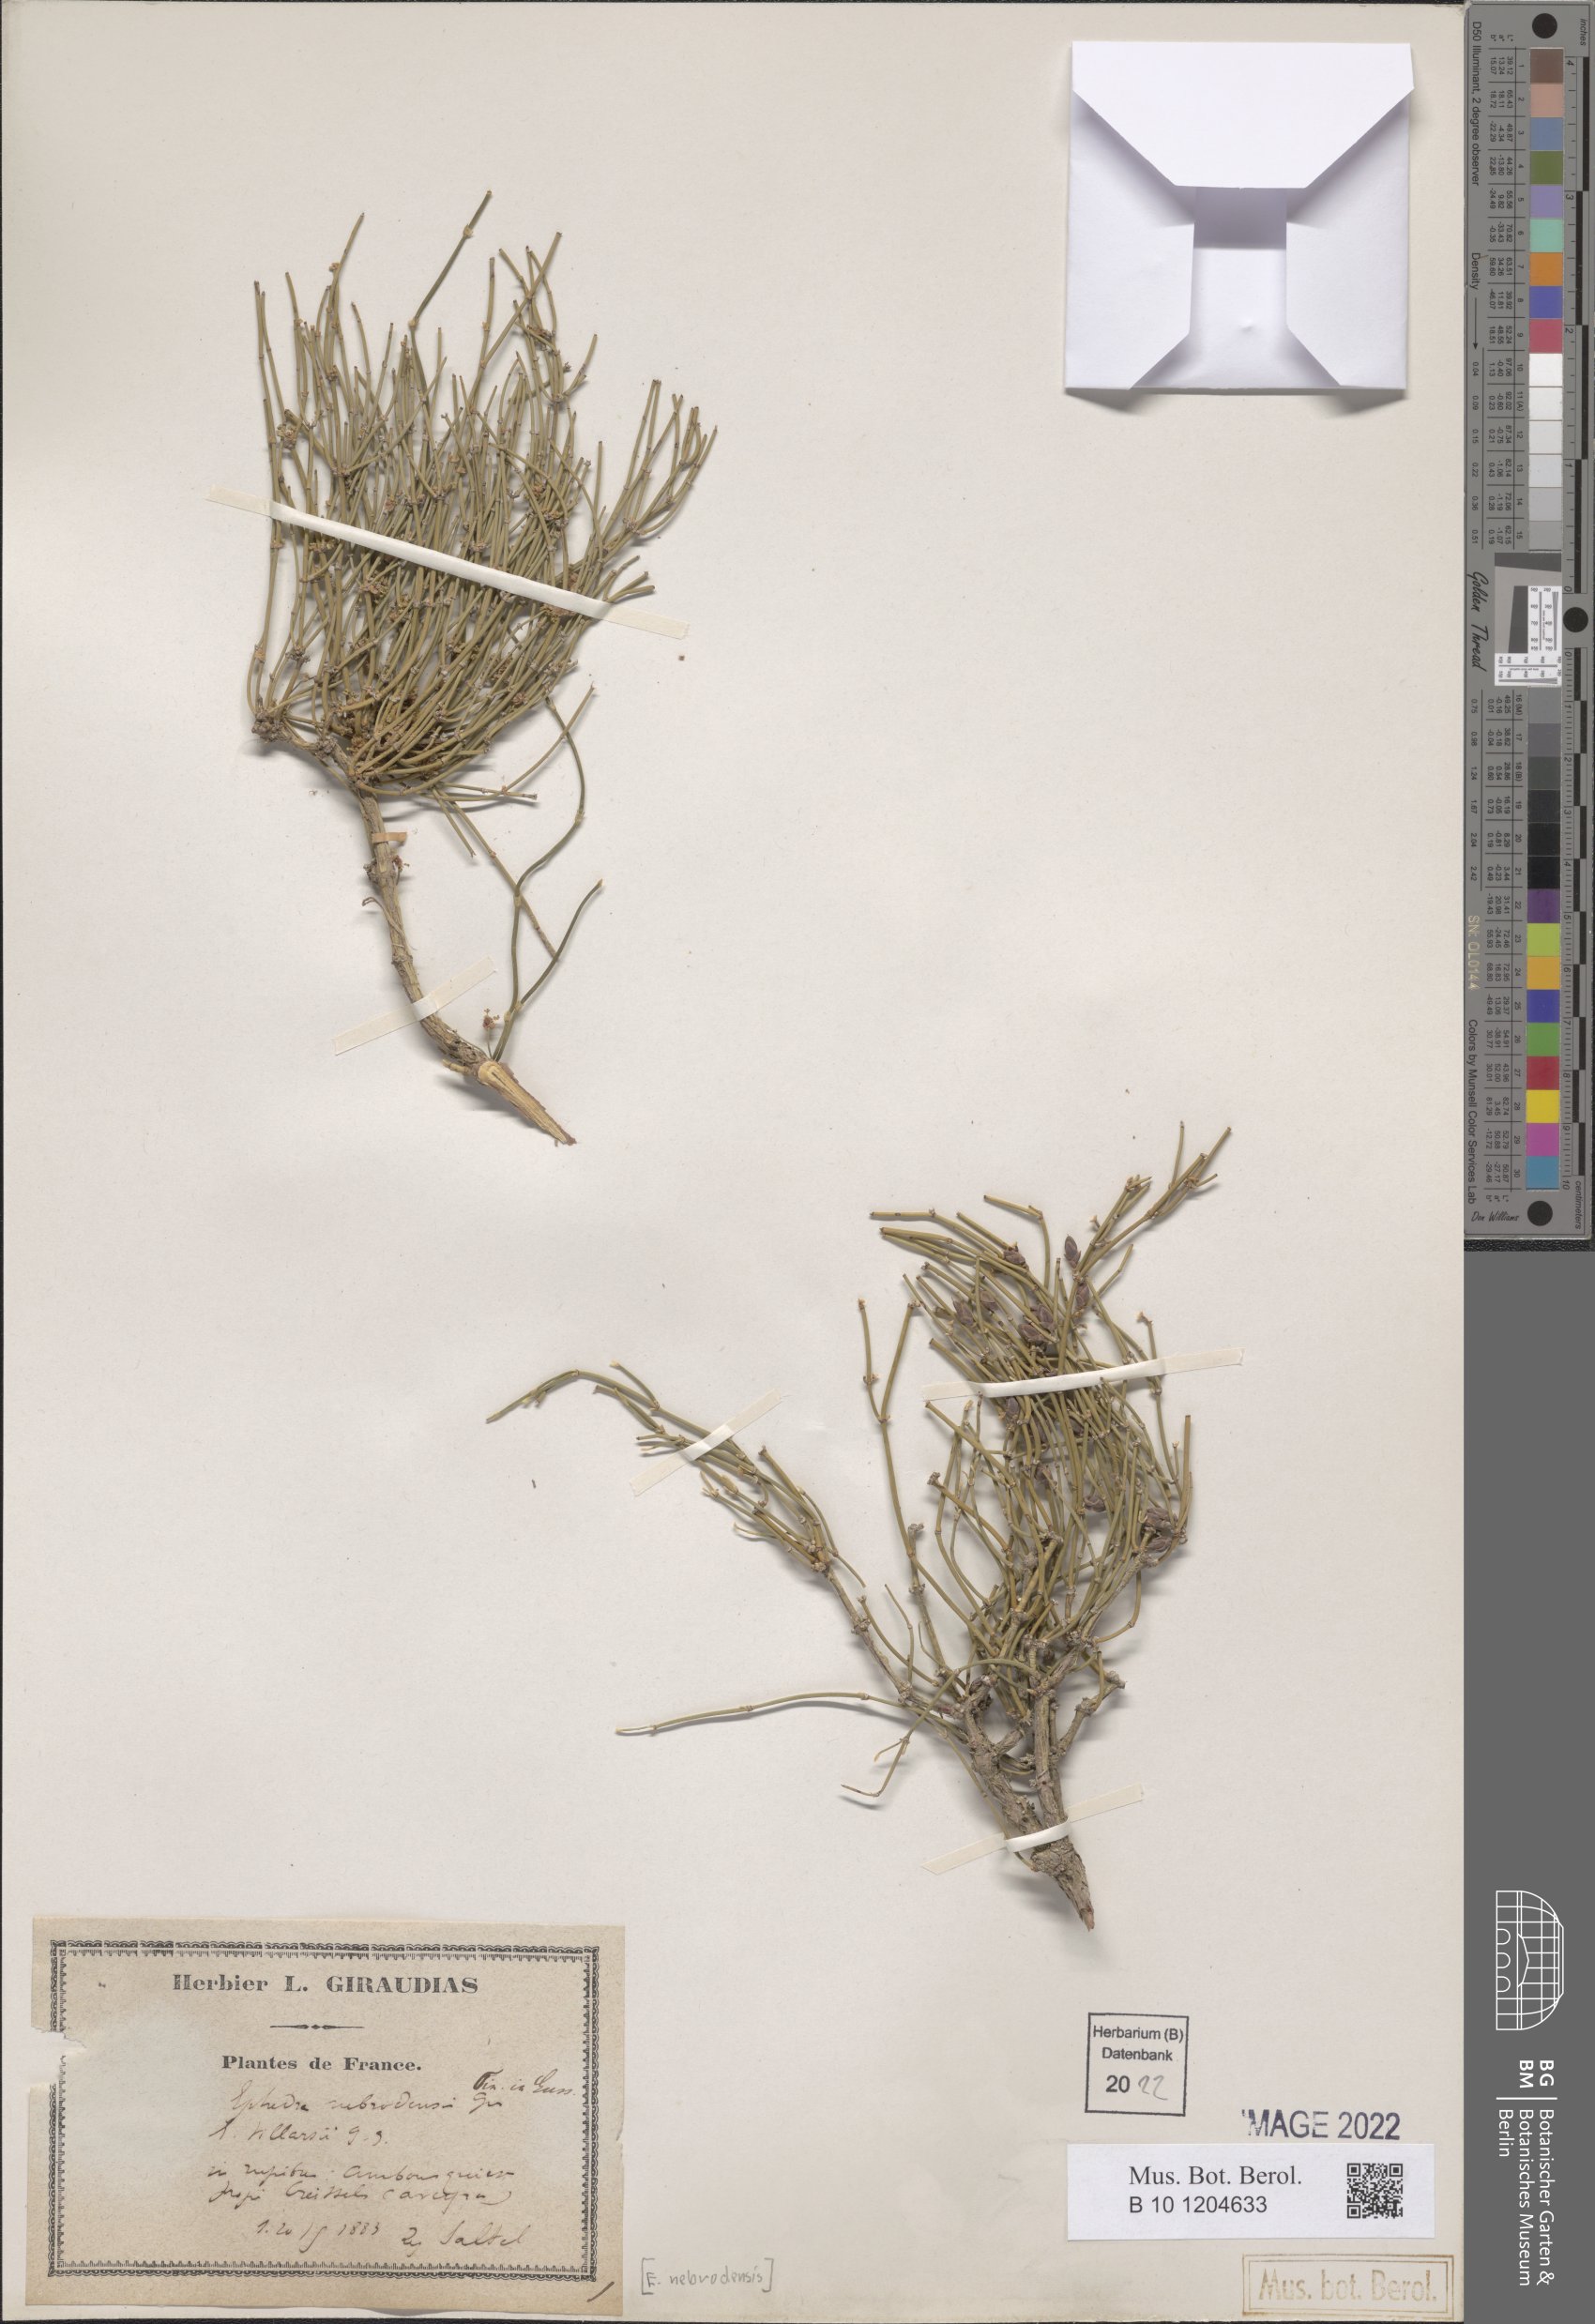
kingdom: Plantae
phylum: Tracheophyta
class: Gnetopsida
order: Ephedrales
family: Ephedraceae
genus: Ephedra
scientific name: Ephedra foeminea
